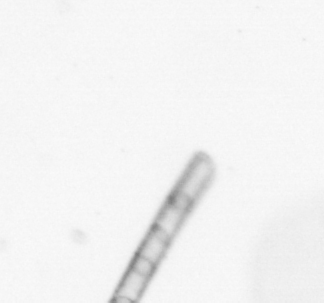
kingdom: Chromista
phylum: Ochrophyta
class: Bacillariophyceae
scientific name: Bacillariophyceae
